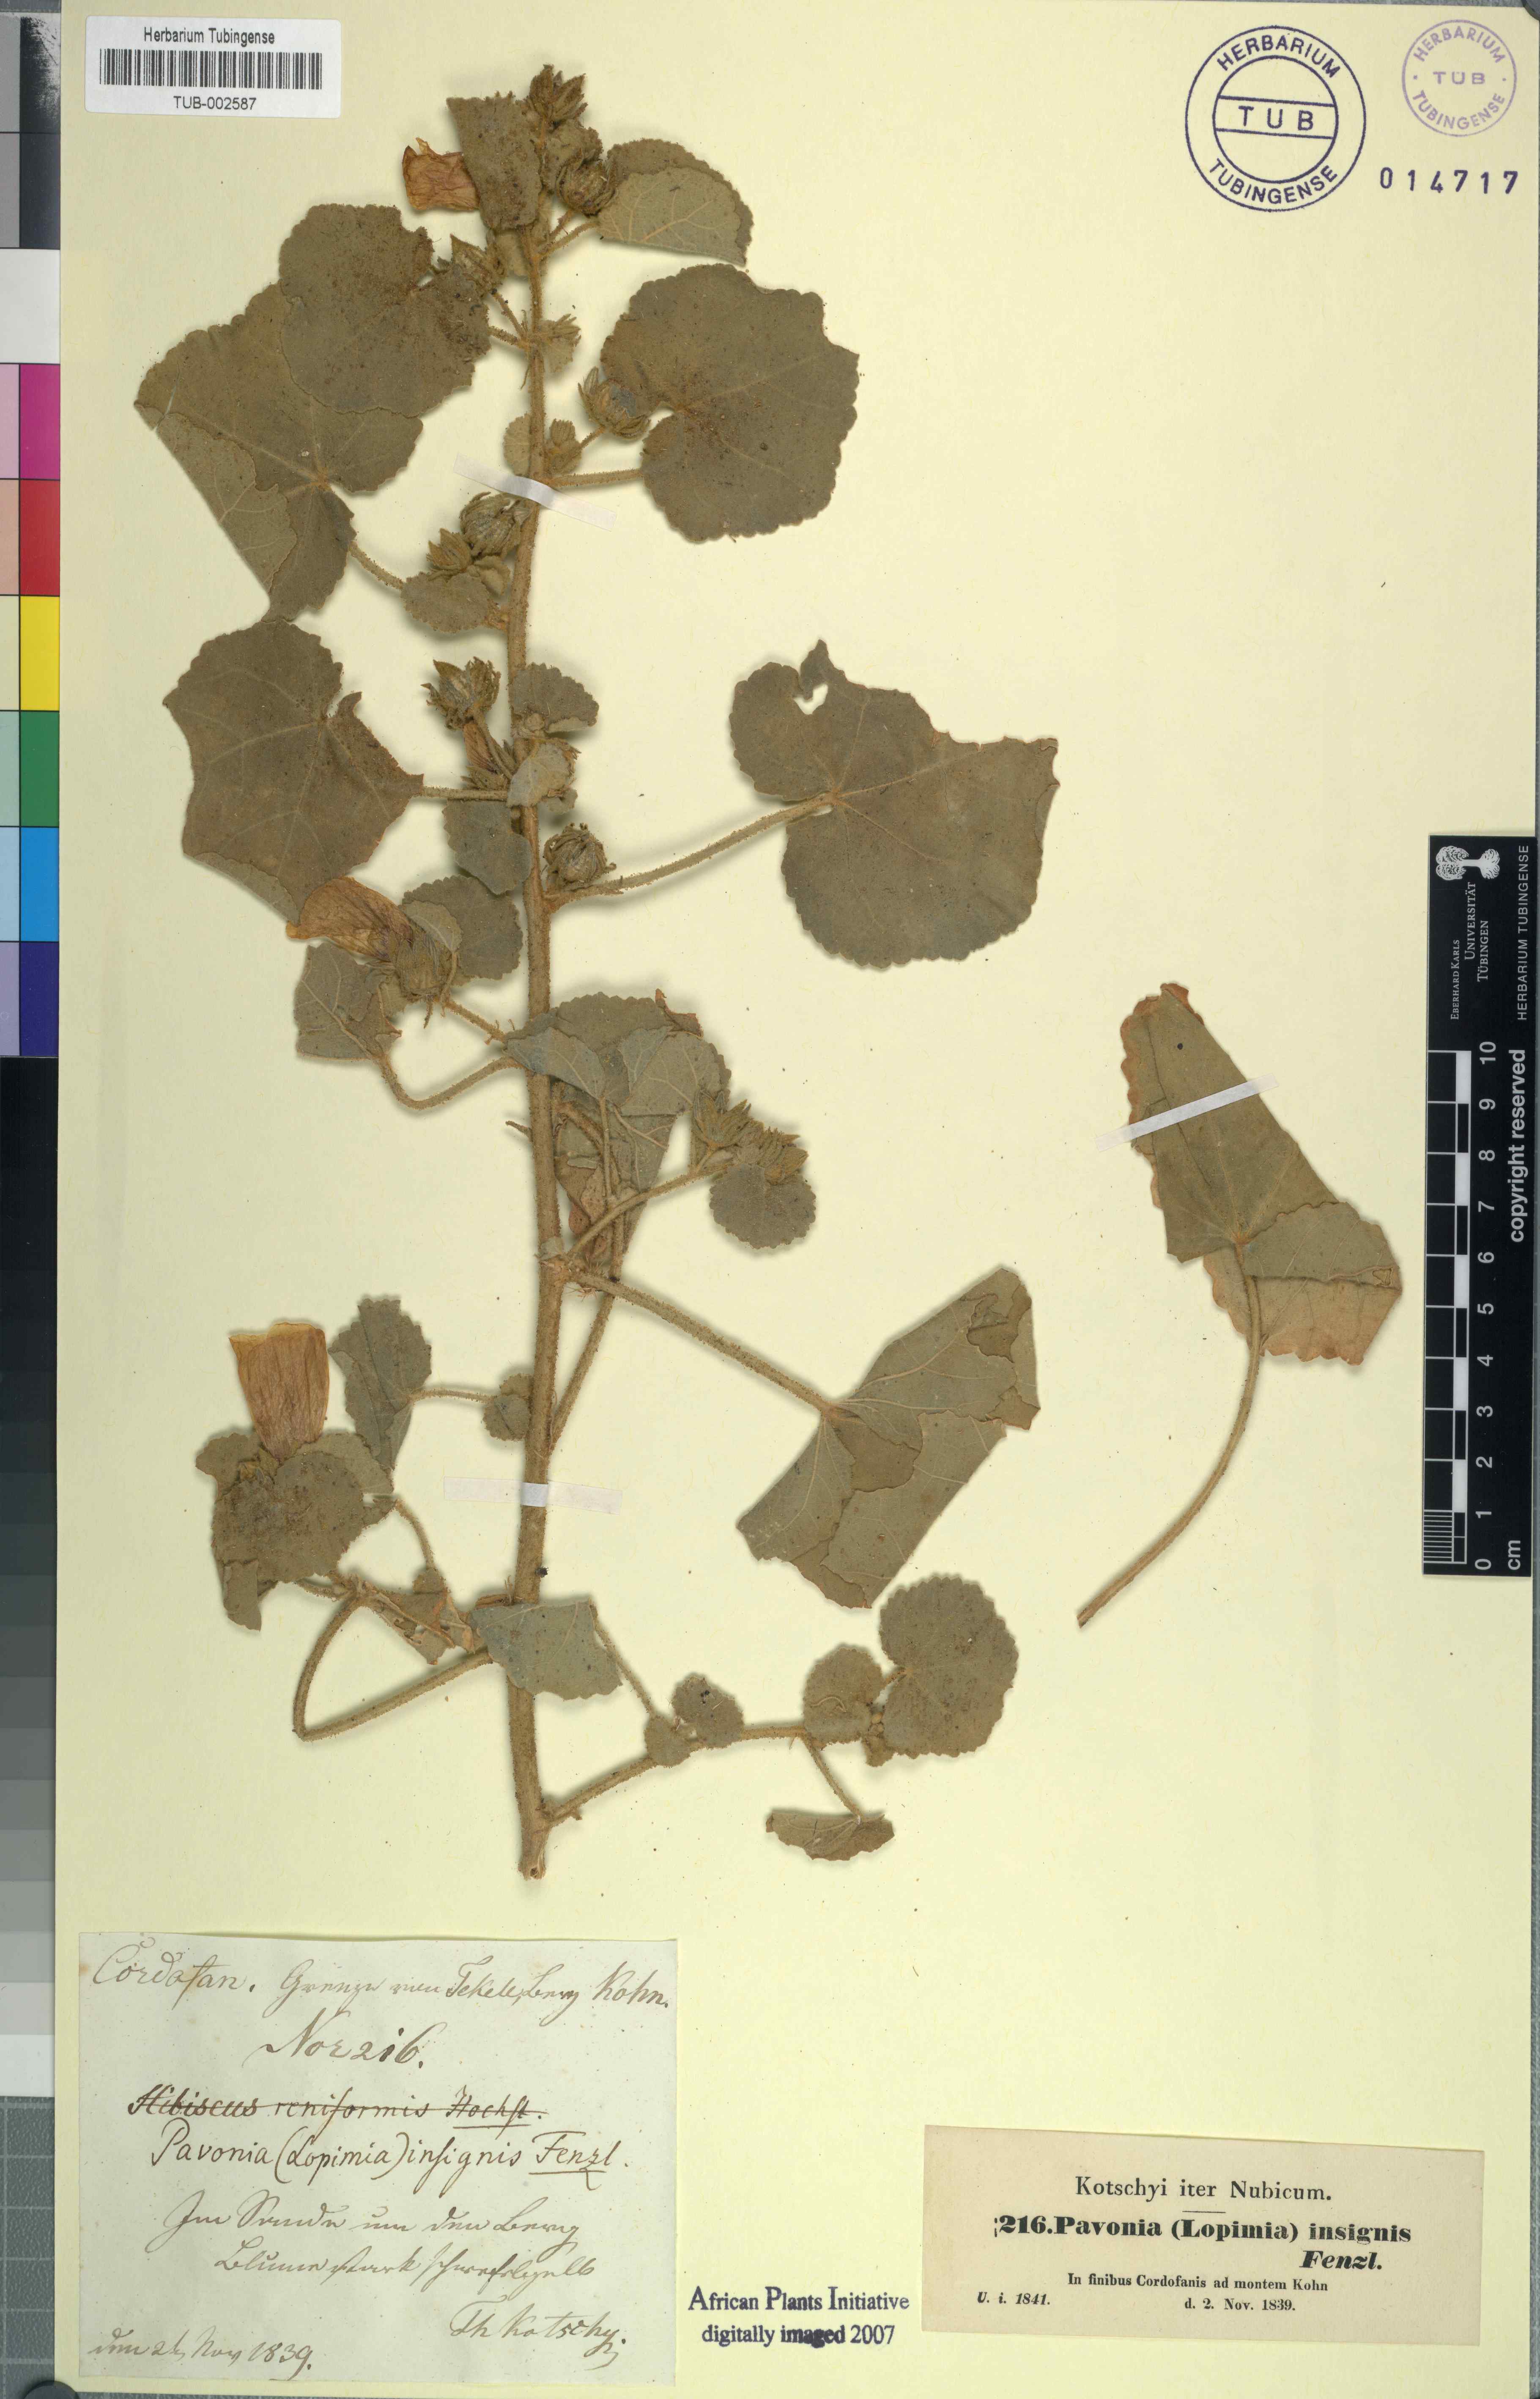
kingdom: Plantae
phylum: Tracheophyta
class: Magnoliopsida
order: Malvales
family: Malvaceae
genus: Pavonia
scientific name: Pavonia senegalensis
